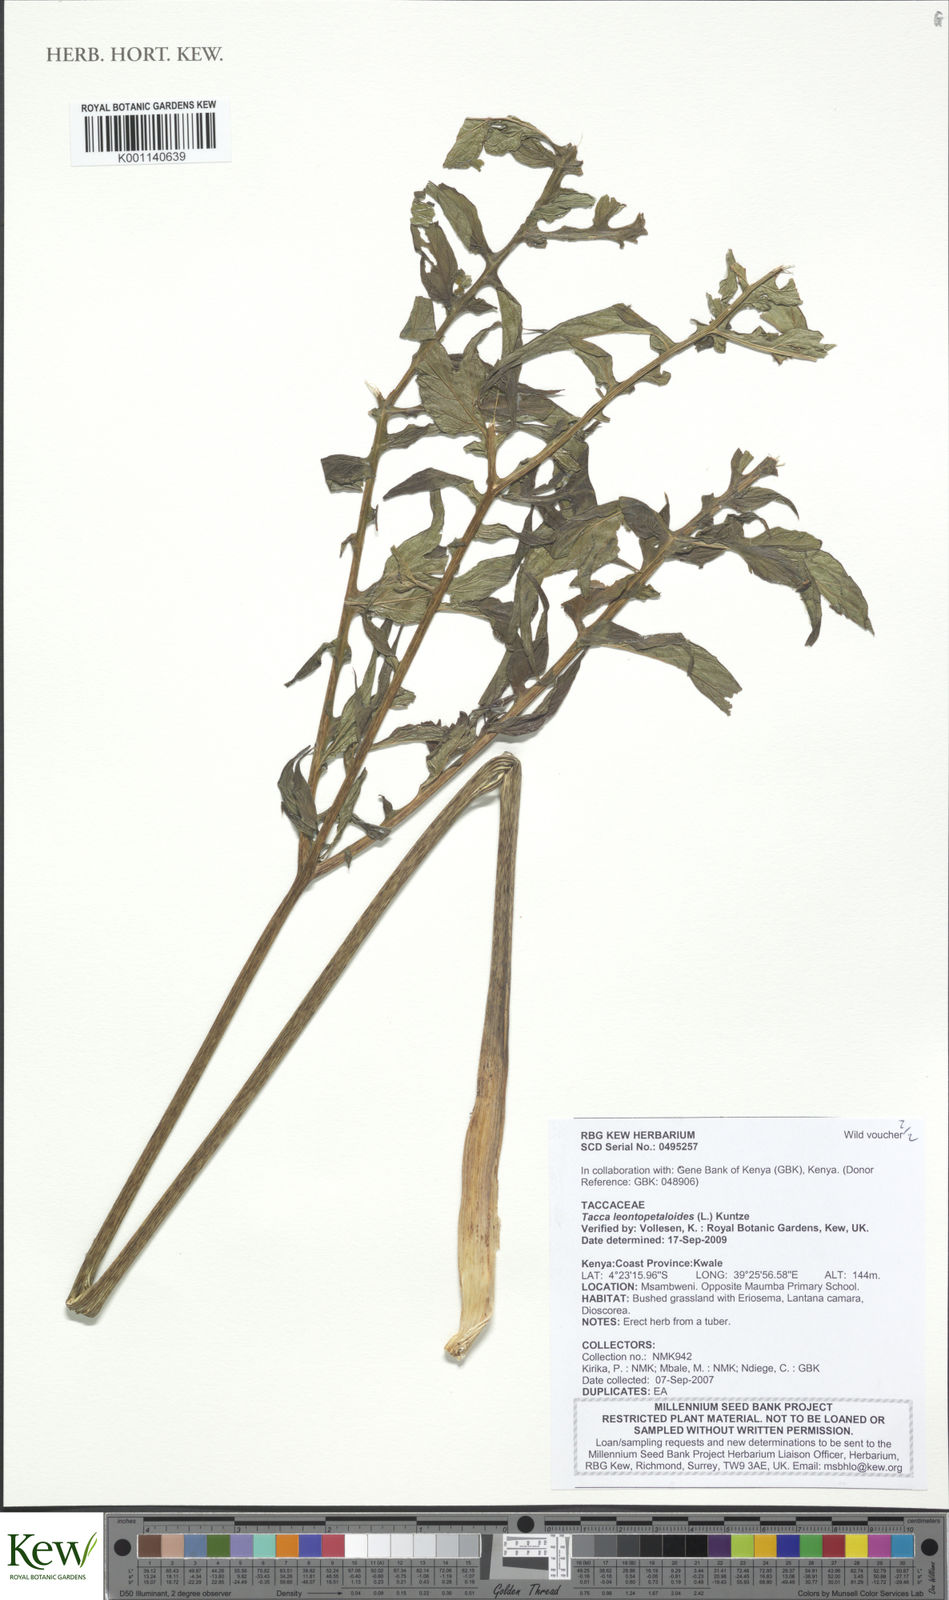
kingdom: Plantae
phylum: Tracheophyta
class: Liliopsida
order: Dioscoreales
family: Dioscoreaceae
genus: Tacca
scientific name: Tacca leontopetaloides
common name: Arrowroot
